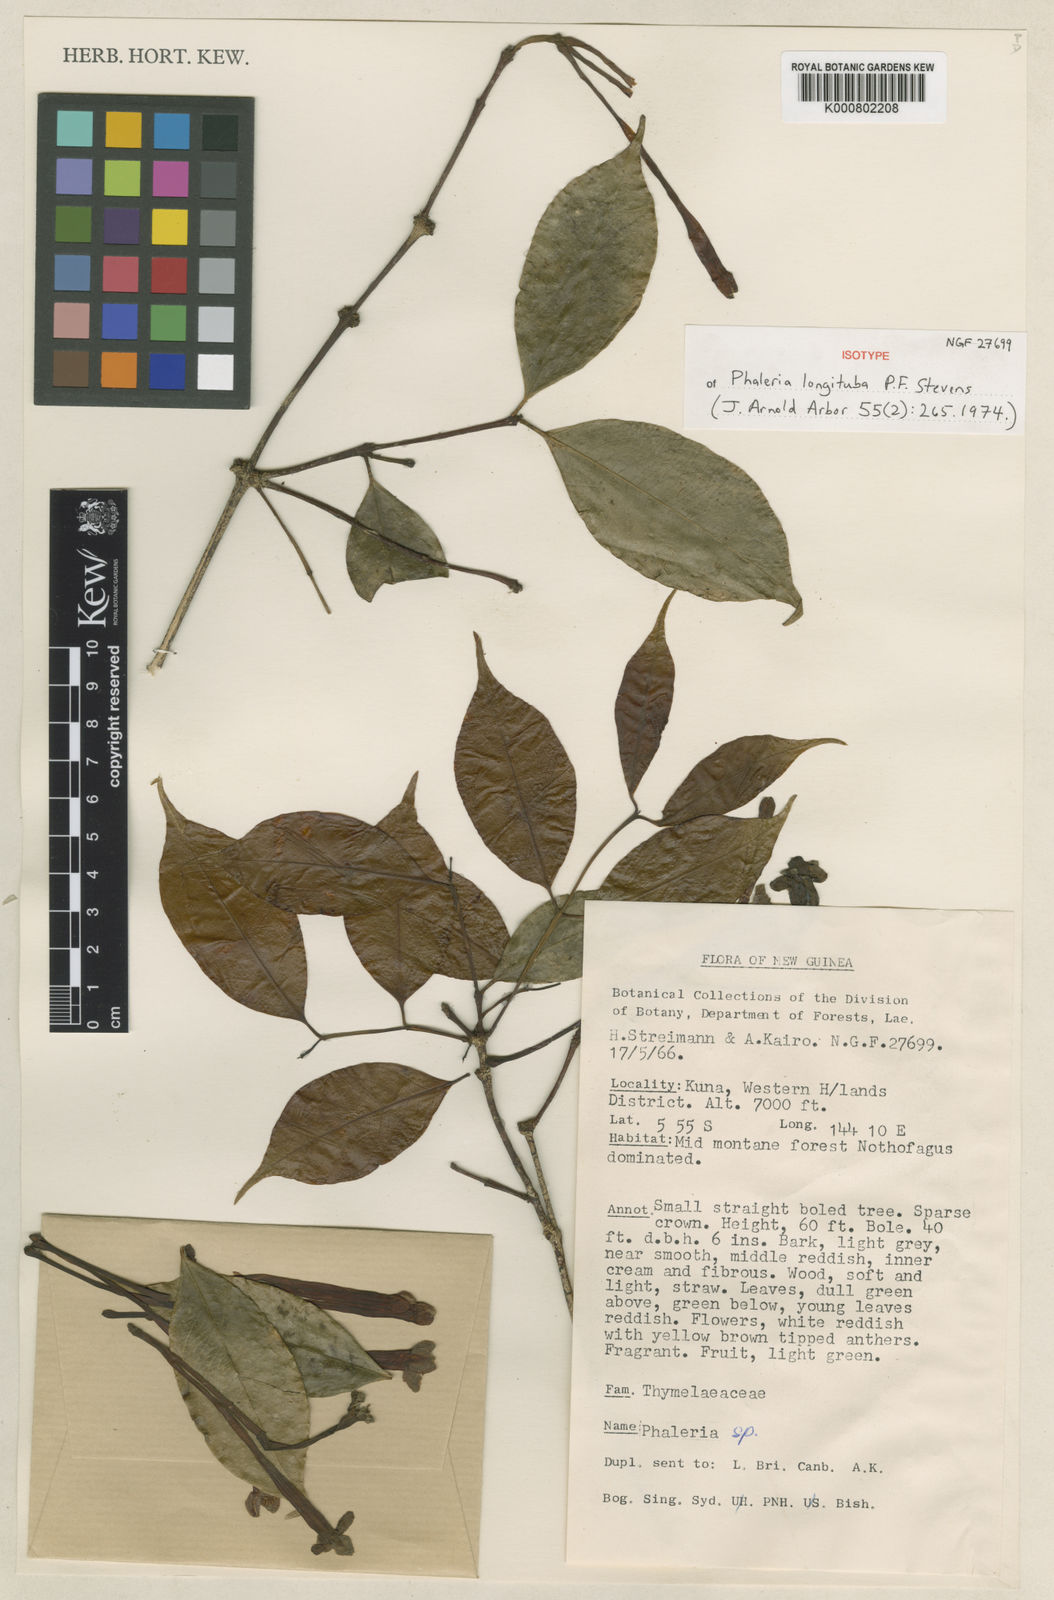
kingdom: Plantae
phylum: Tracheophyta
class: Magnoliopsida
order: Malvales
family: Thymelaeaceae
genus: Phaleria
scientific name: Phaleria longituba
